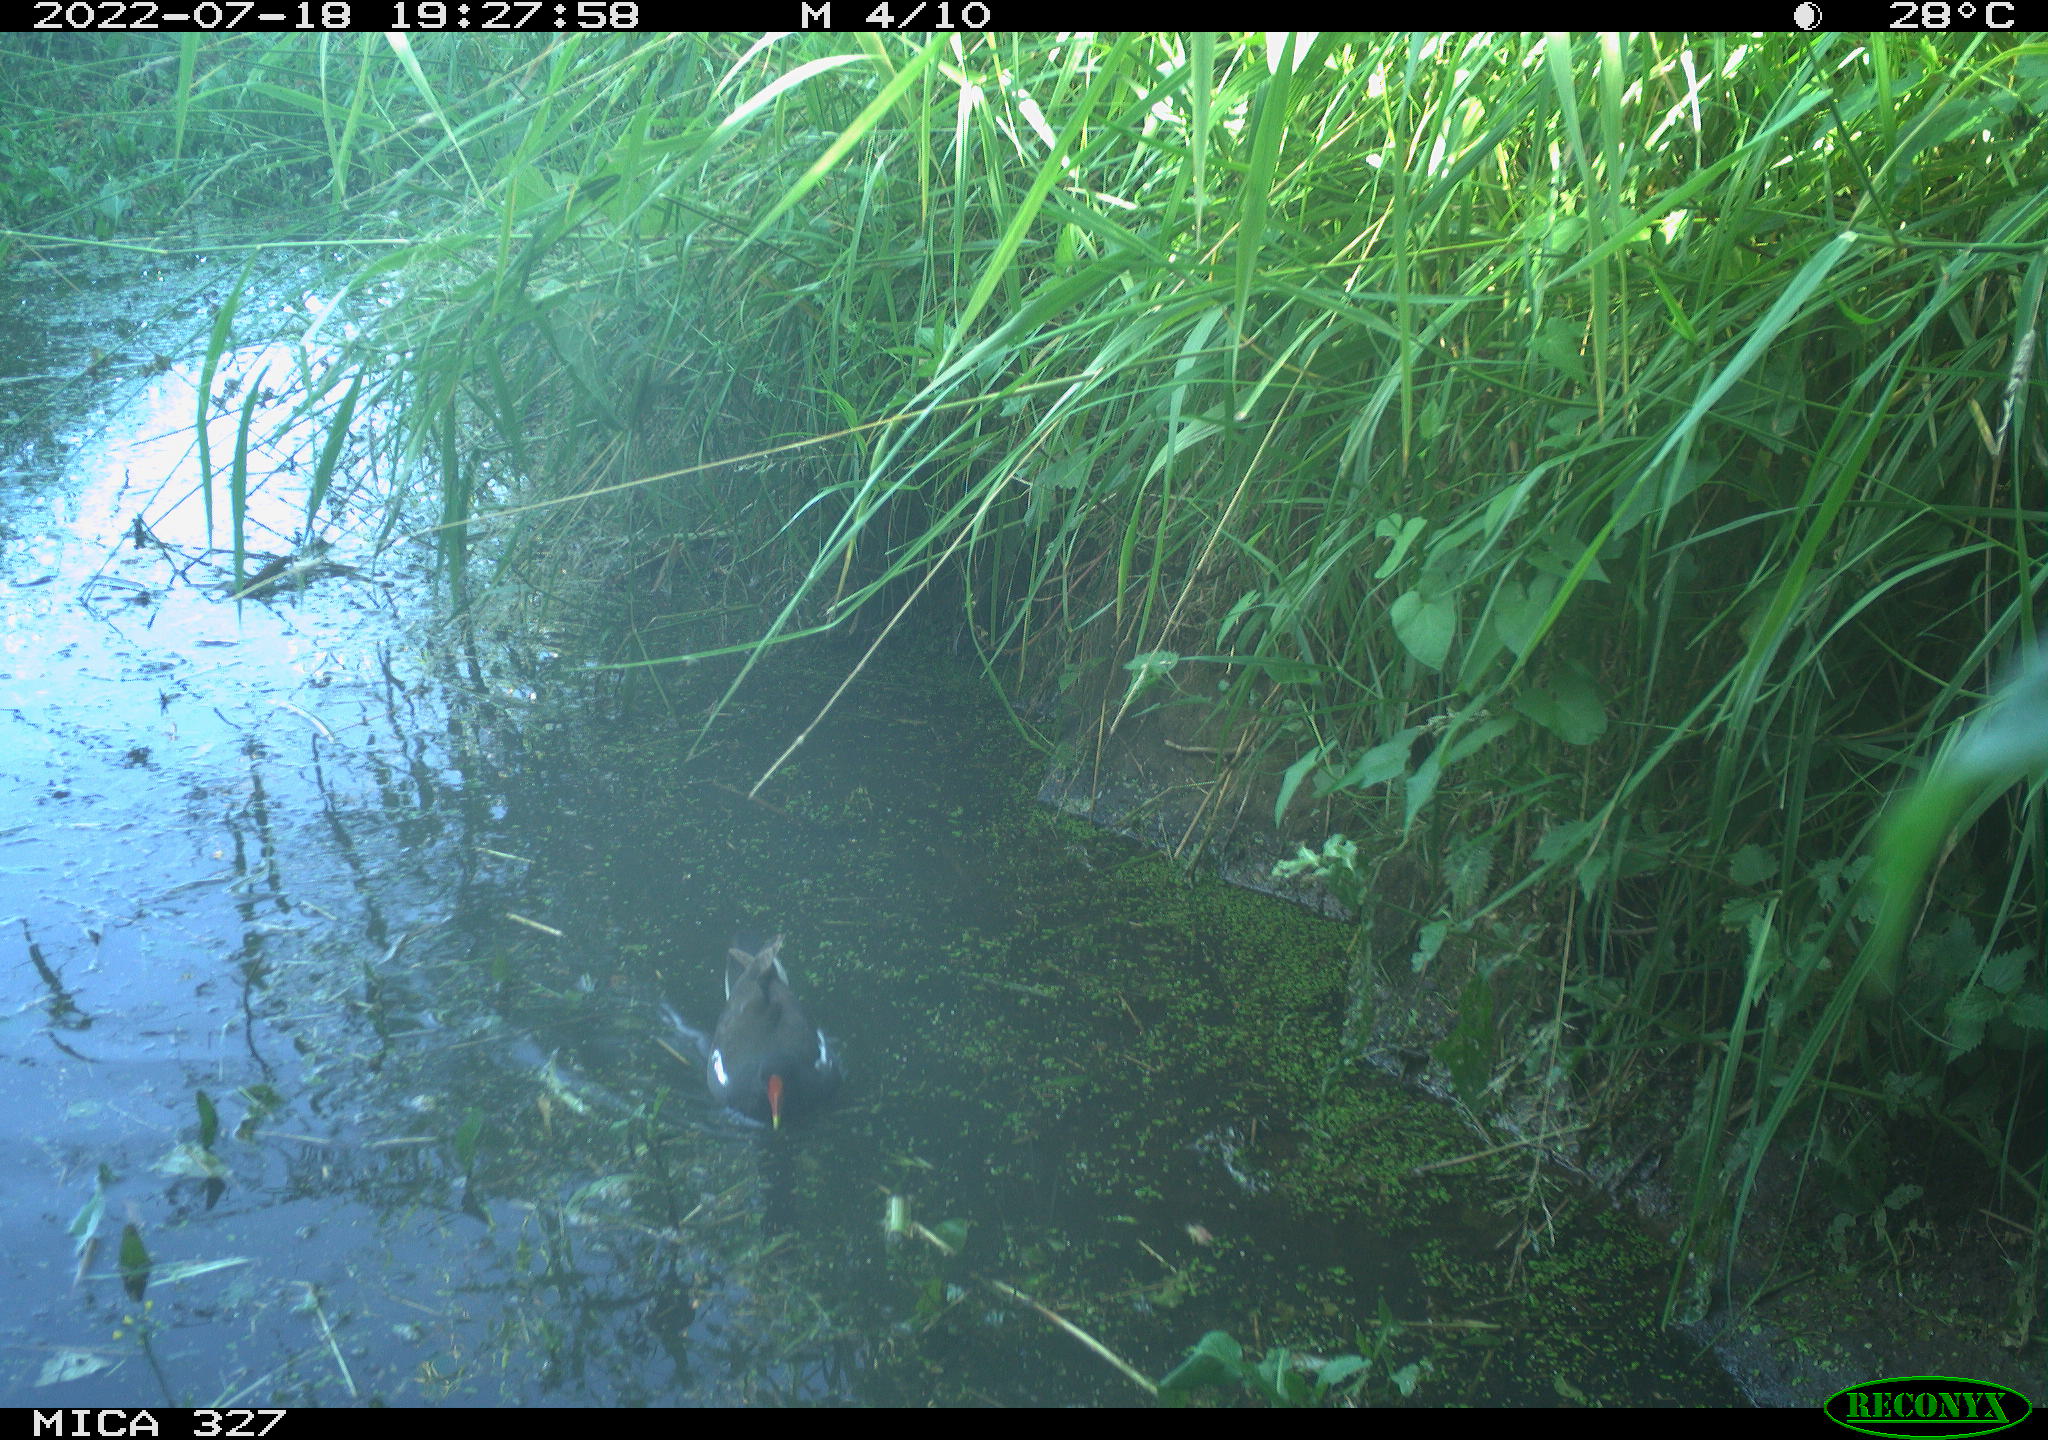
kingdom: Animalia
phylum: Chordata
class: Aves
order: Gruiformes
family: Rallidae
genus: Gallinula
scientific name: Gallinula chloropus
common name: Common moorhen
